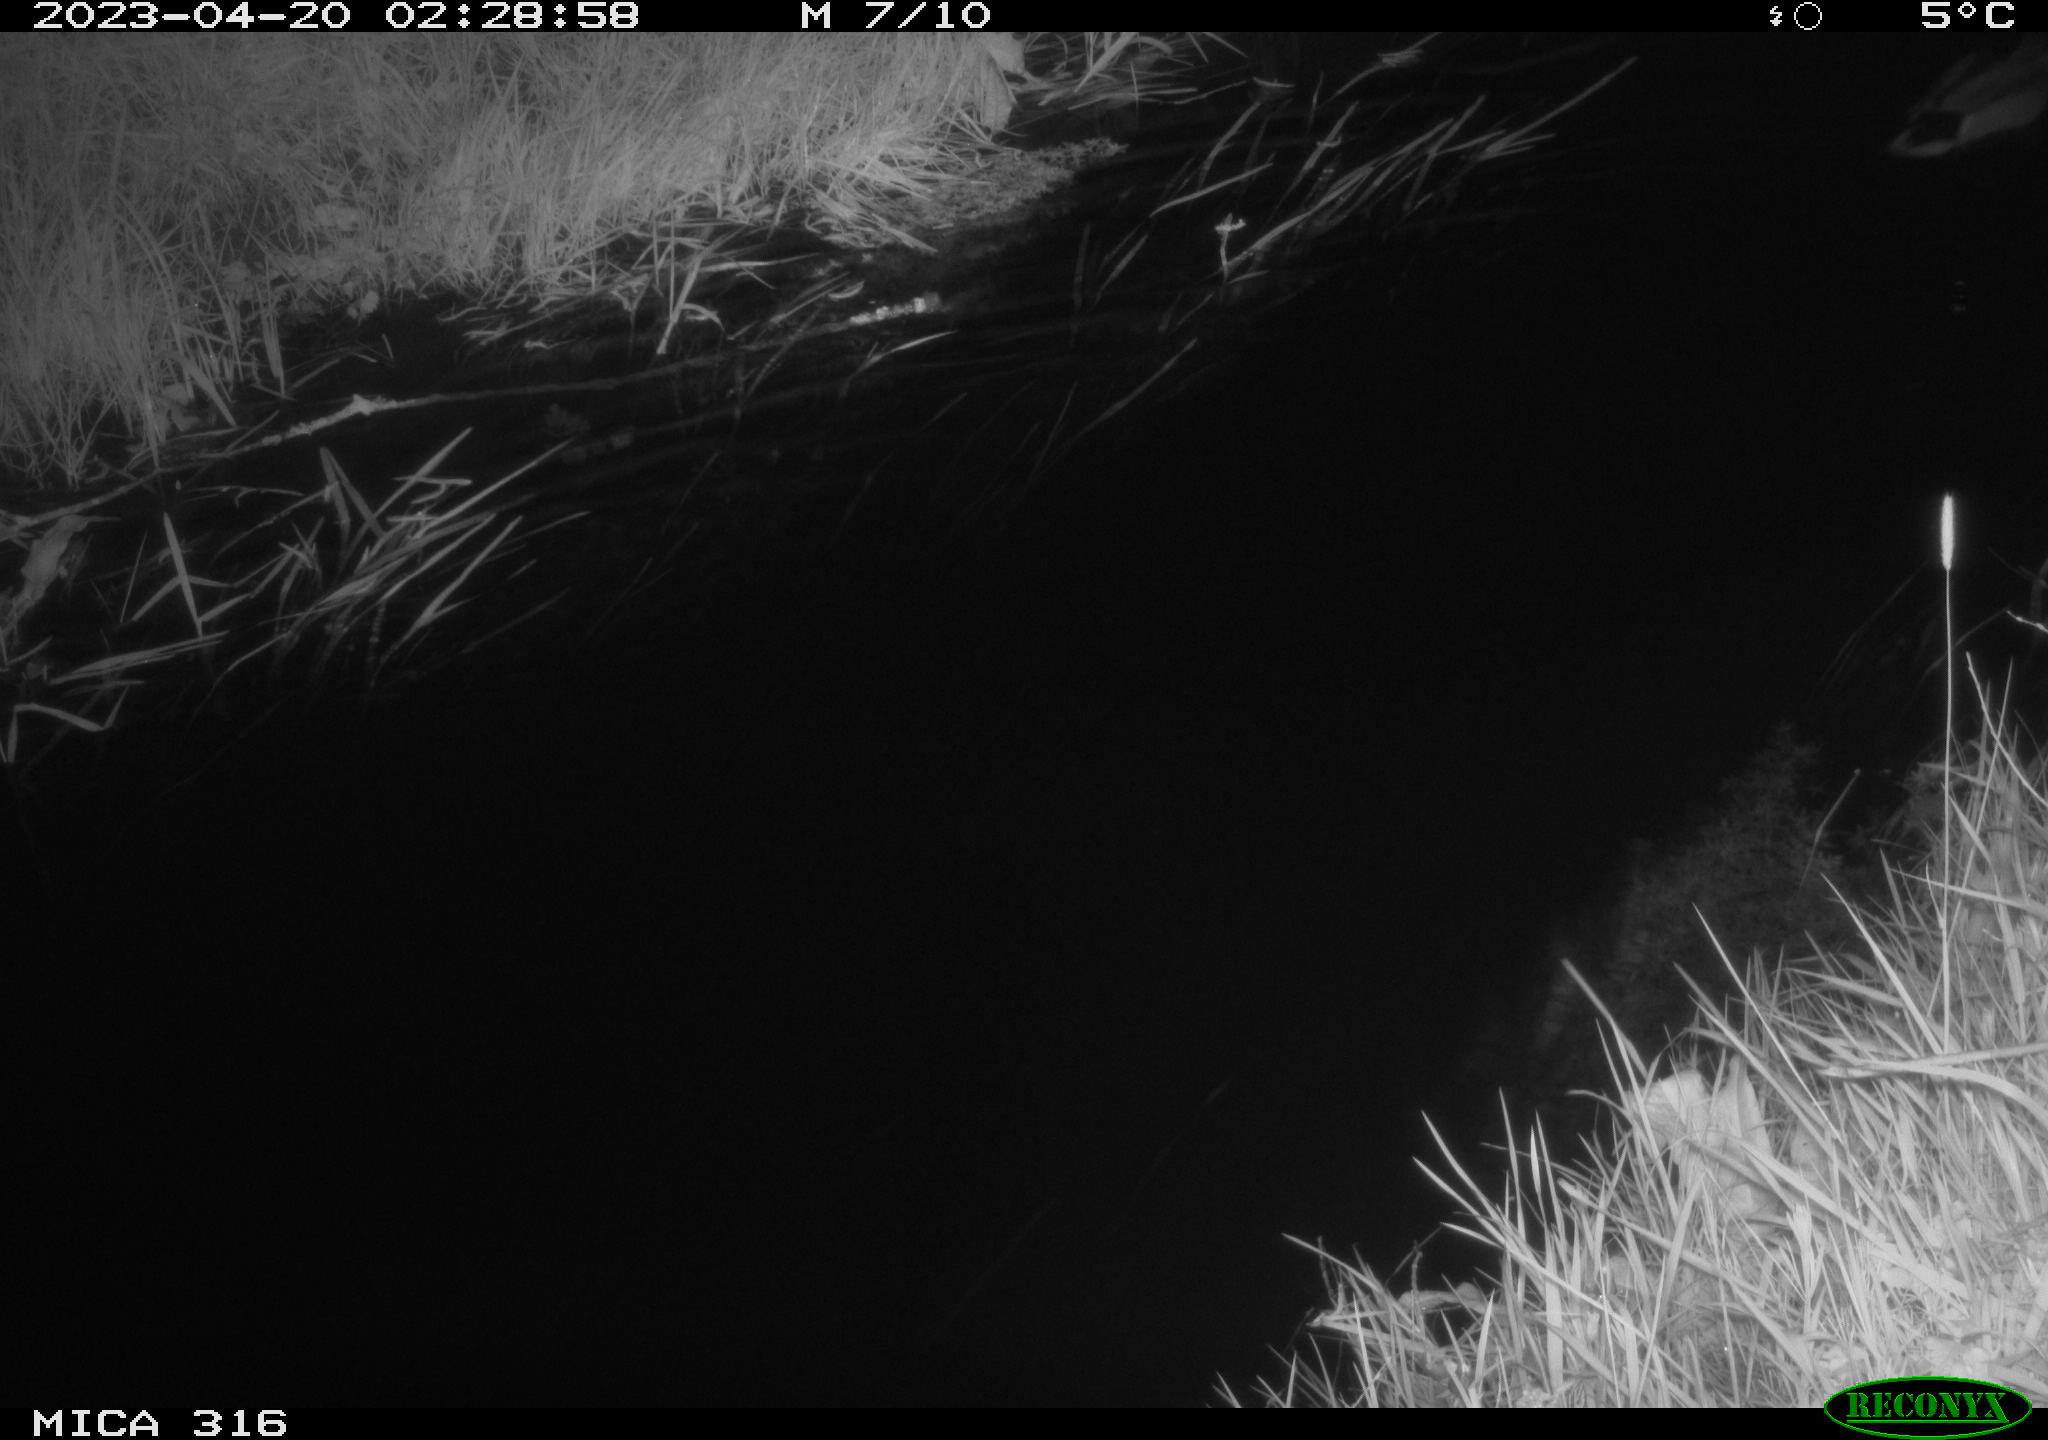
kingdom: Animalia
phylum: Chordata
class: Aves
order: Anseriformes
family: Anatidae
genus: Anas
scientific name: Anas
